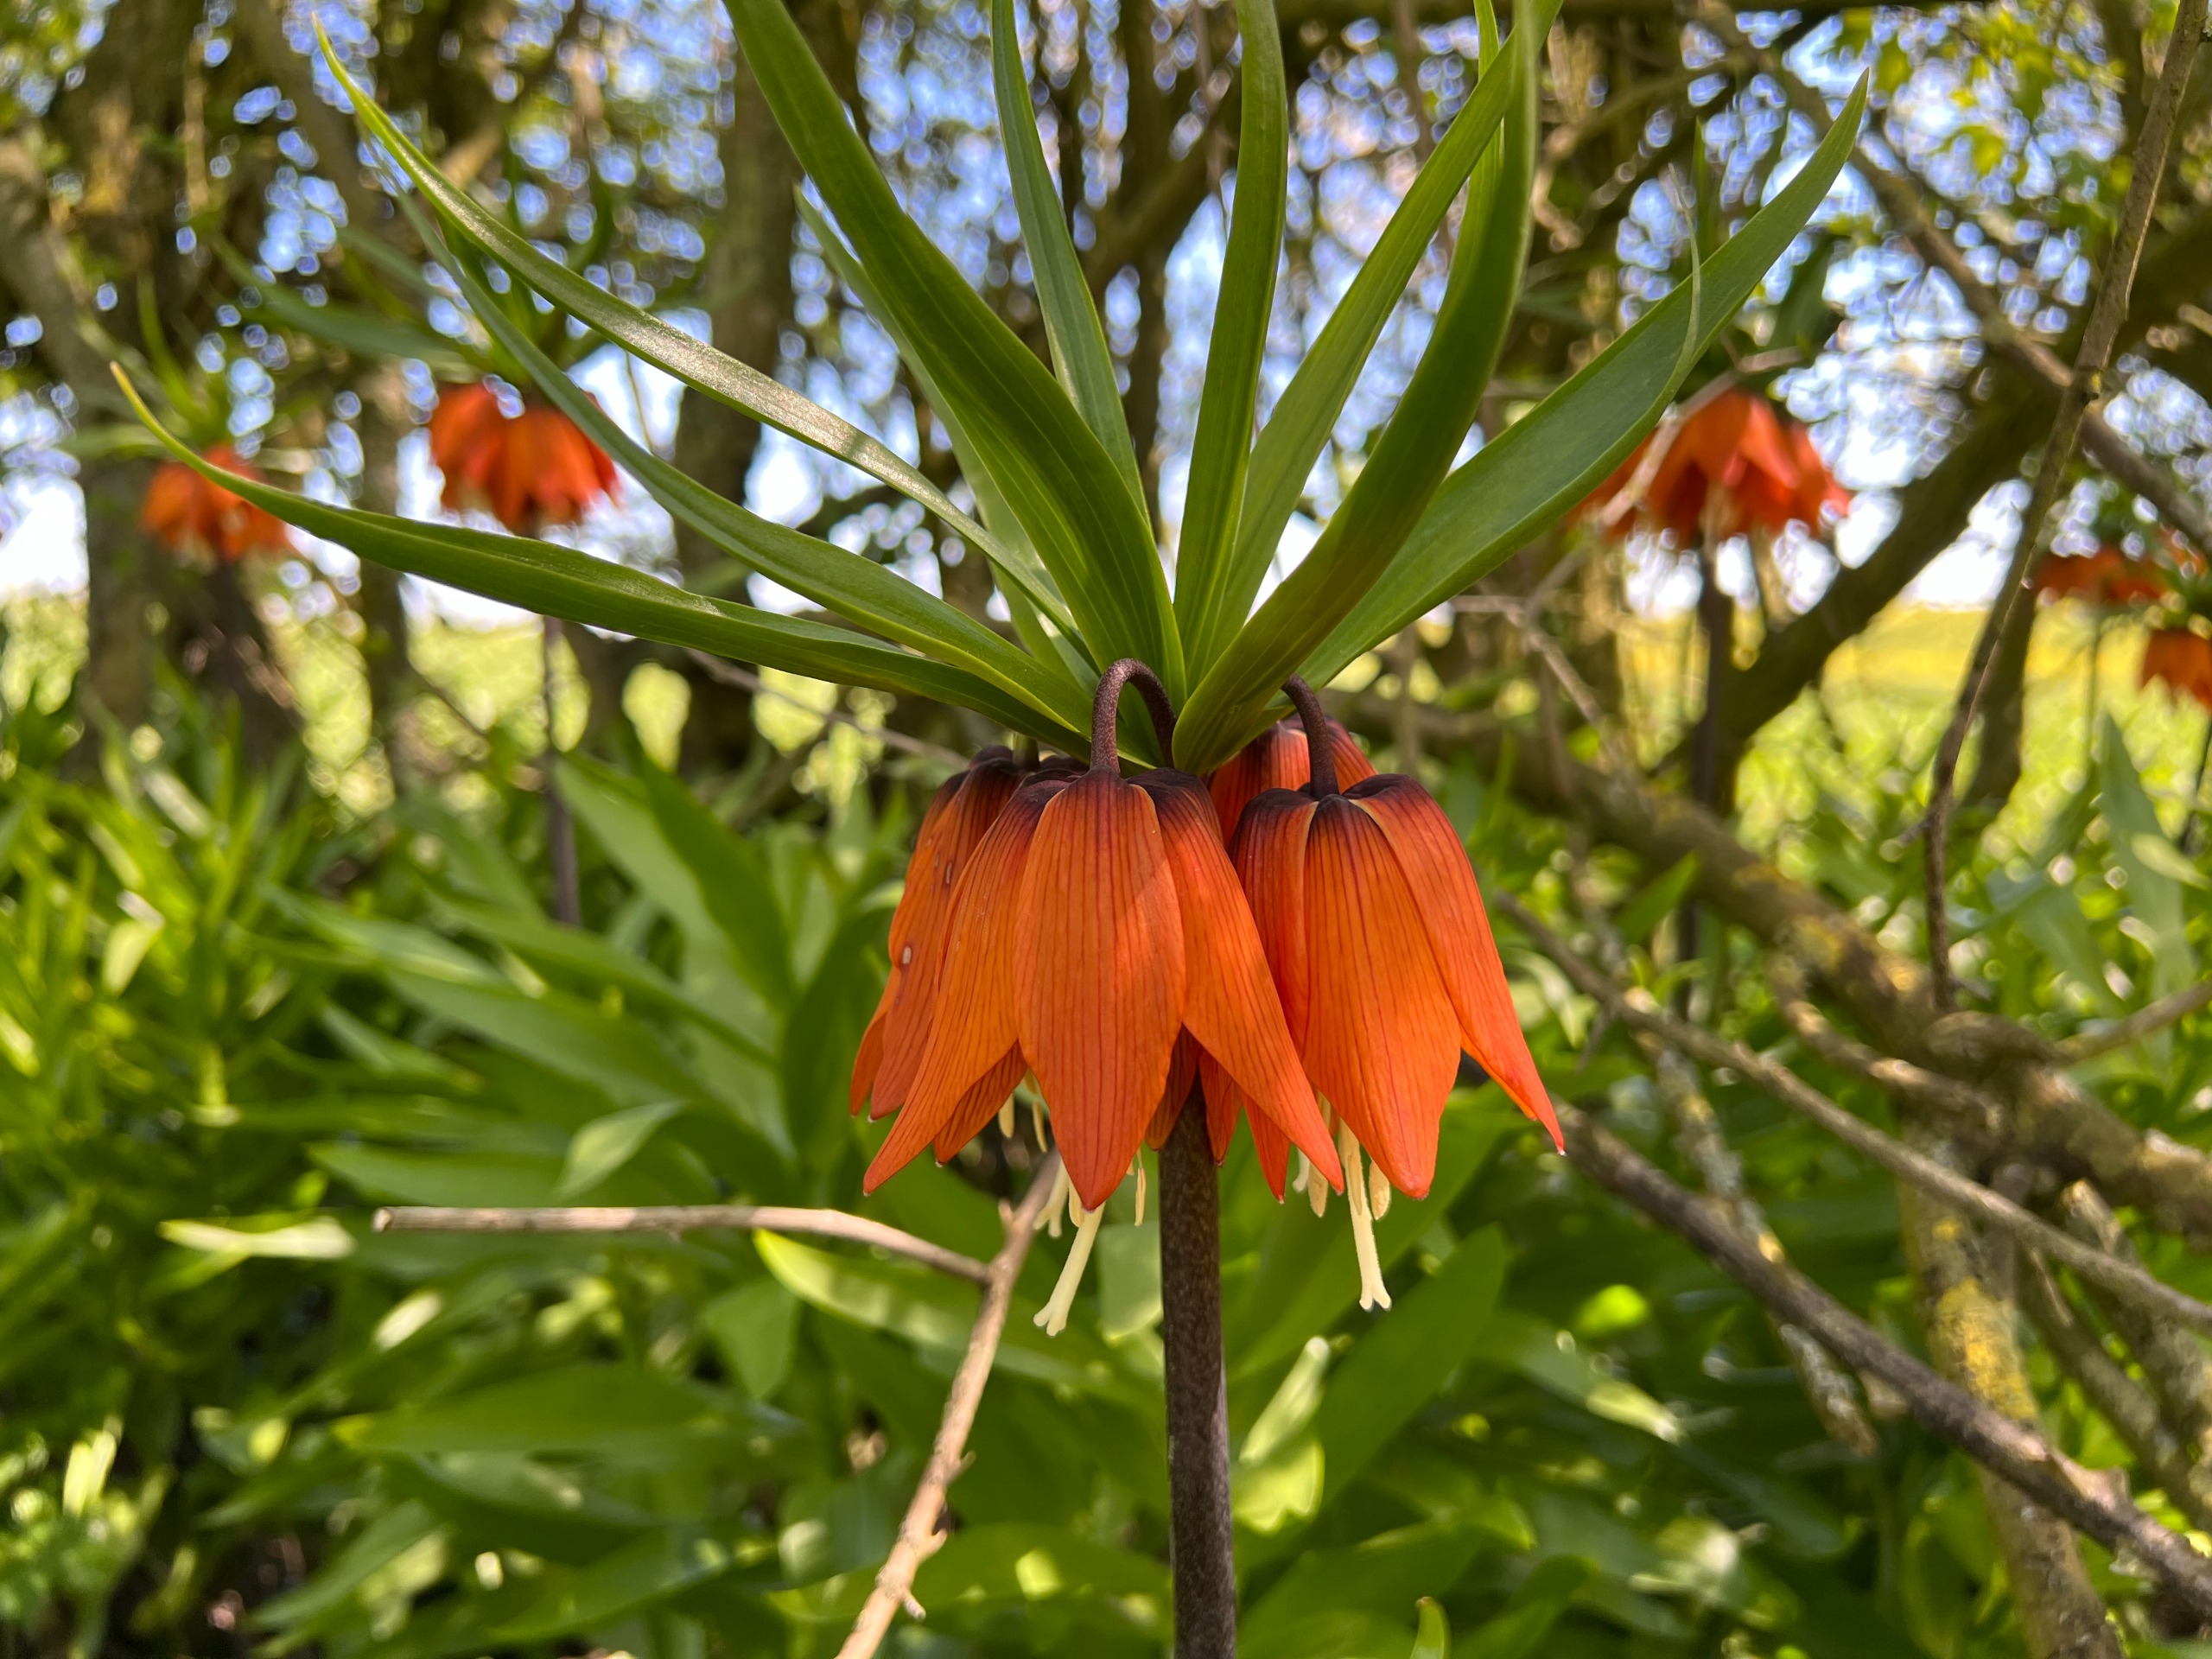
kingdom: Plantae
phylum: Tracheophyta
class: Liliopsida
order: Liliales
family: Liliaceae
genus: Fritillaria
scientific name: Fritillaria imperialis
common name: Kejserkrone
